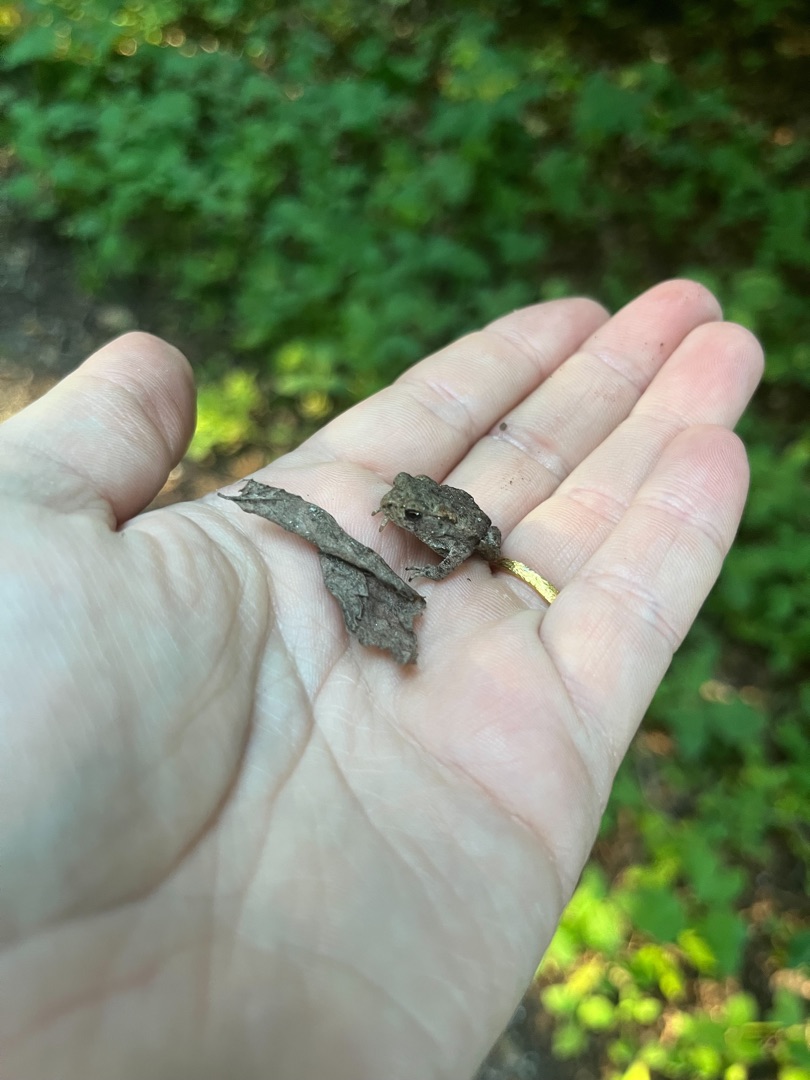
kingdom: Animalia
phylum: Chordata
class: Amphibia
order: Anura
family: Bufonidae
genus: Bufo
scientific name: Bufo bufo
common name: Skrubtudse
